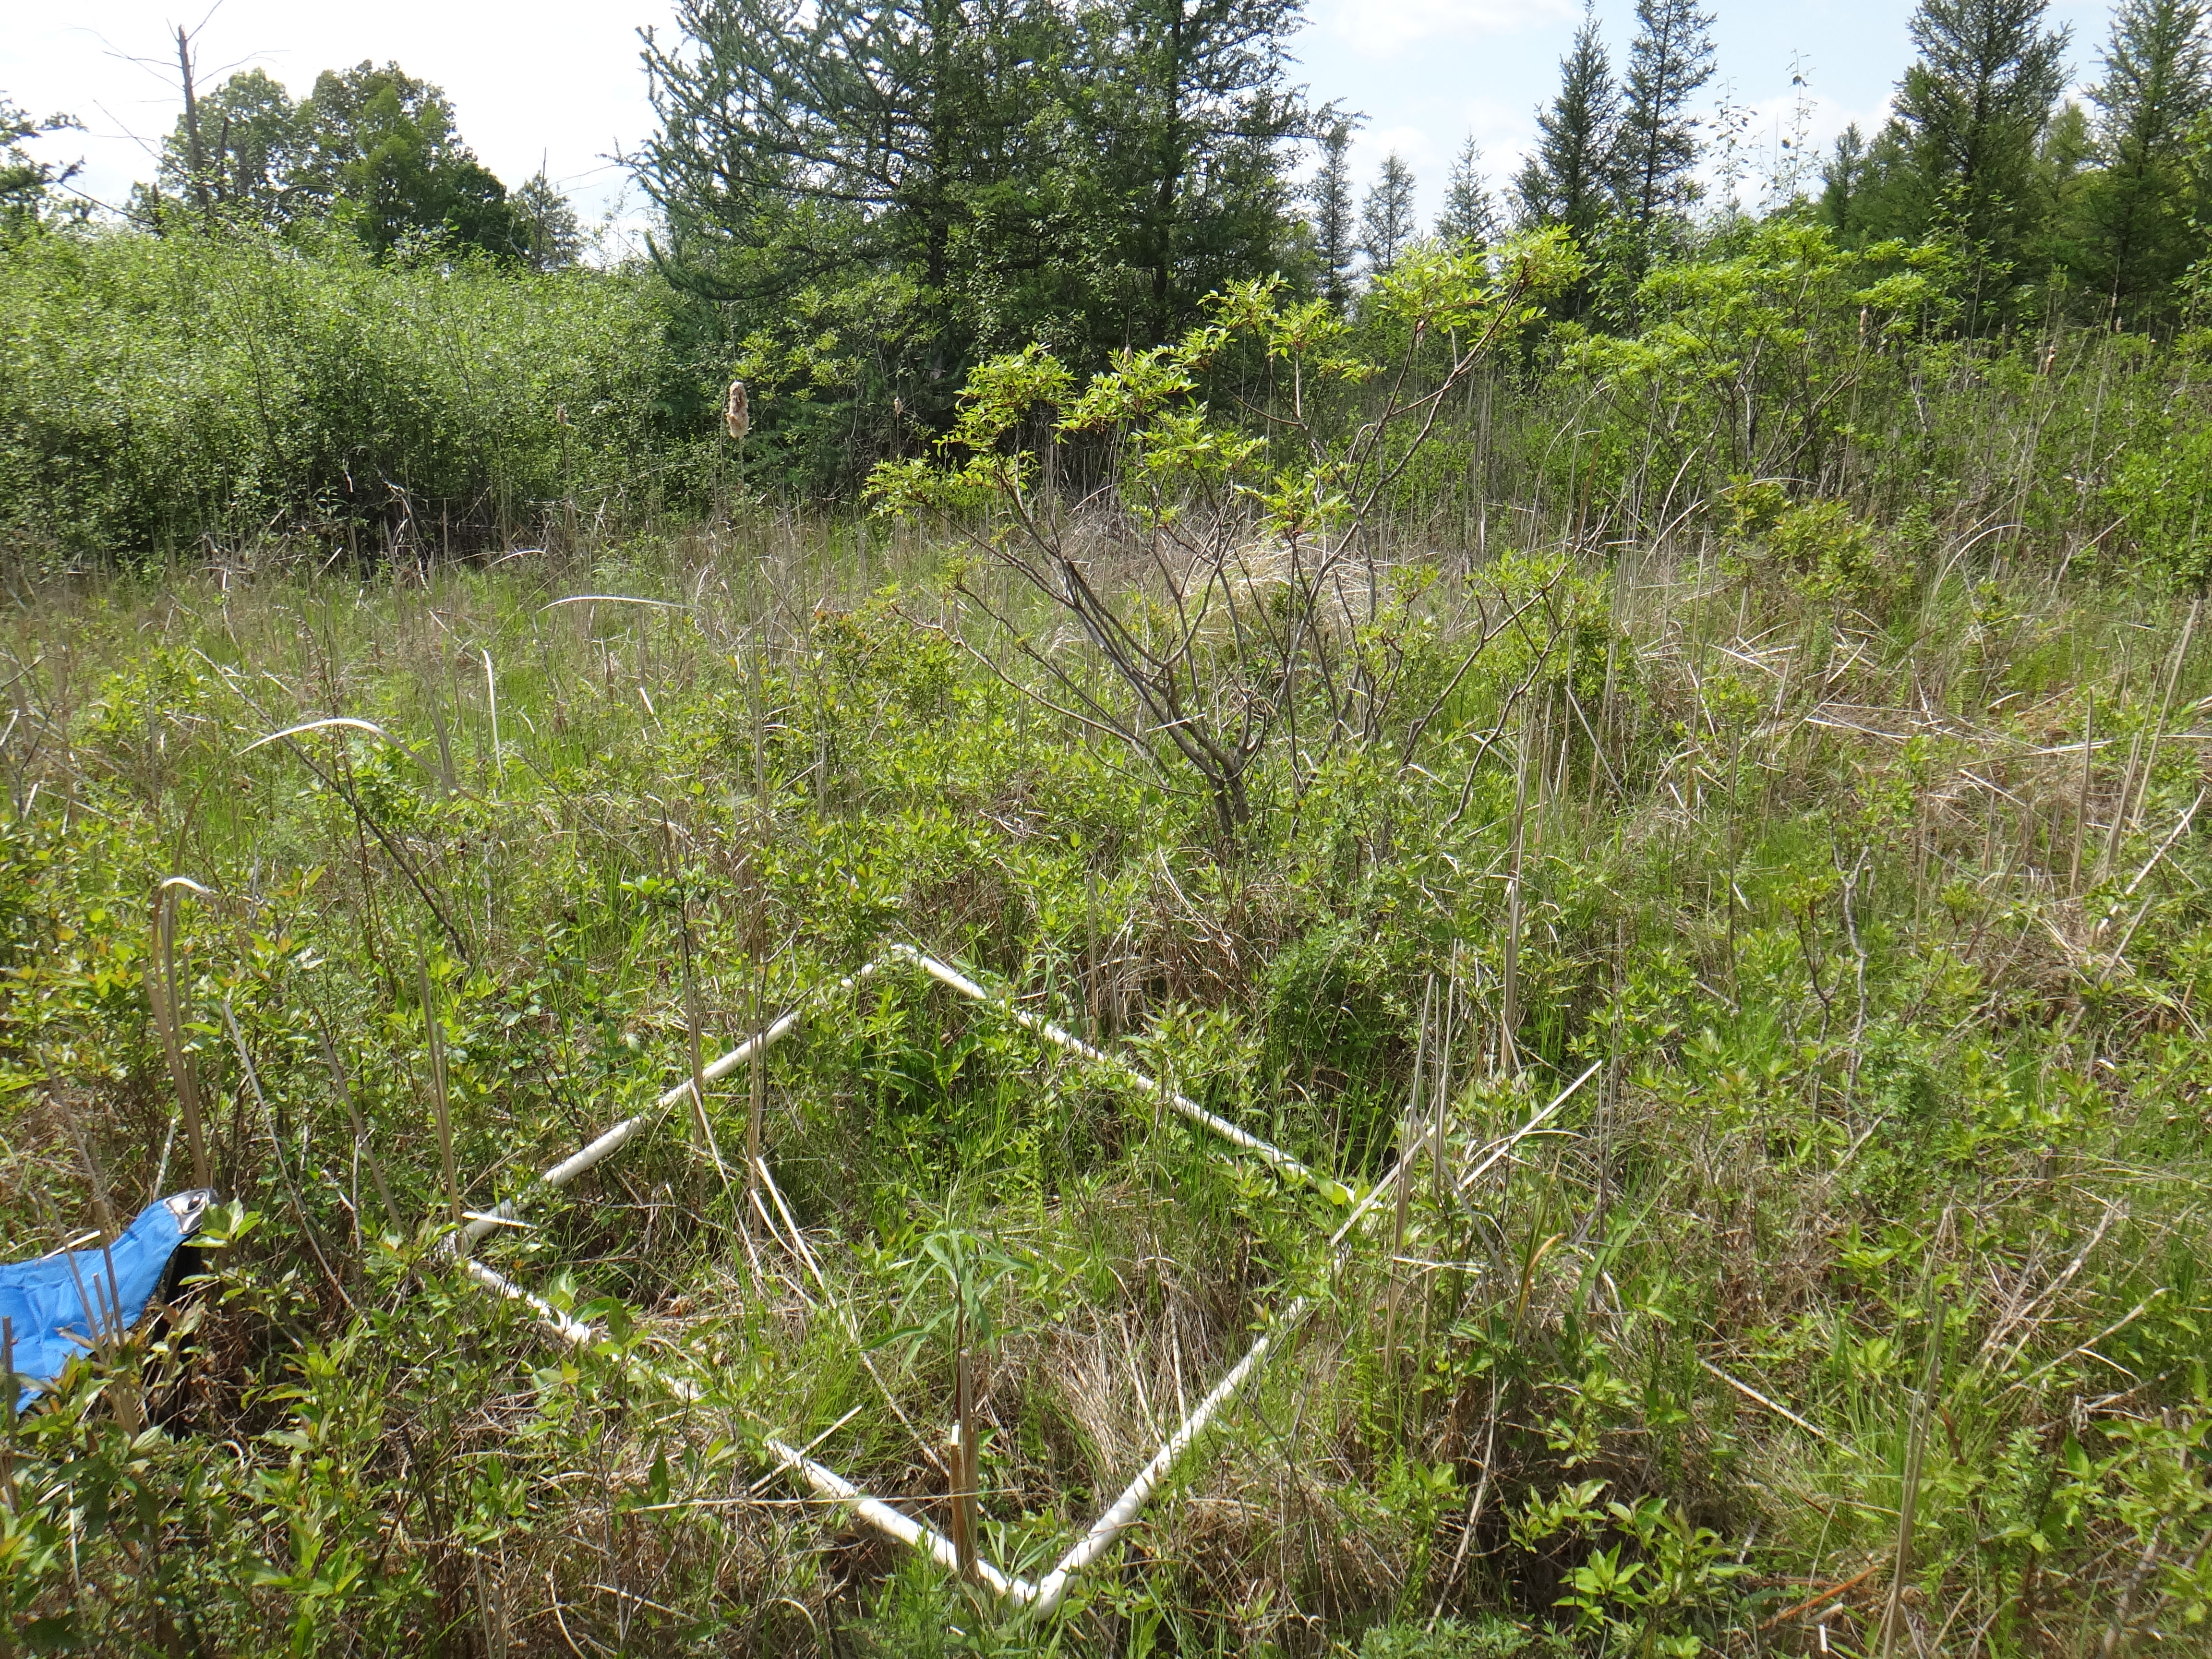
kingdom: Plantae
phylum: Tracheophyta
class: Liliopsida
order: Poales
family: Cyperaceae
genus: Carex
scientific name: Carex stricta
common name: Hummock sedge
